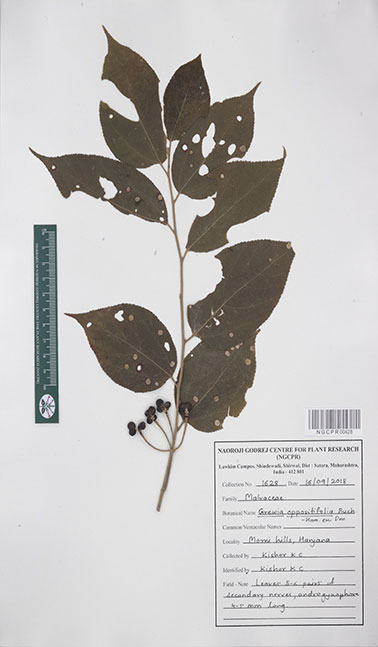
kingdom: Plantae
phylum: Tracheophyta
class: Magnoliopsida
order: Malvales
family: Malvaceae
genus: Grewia
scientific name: Grewia oppositifolia
